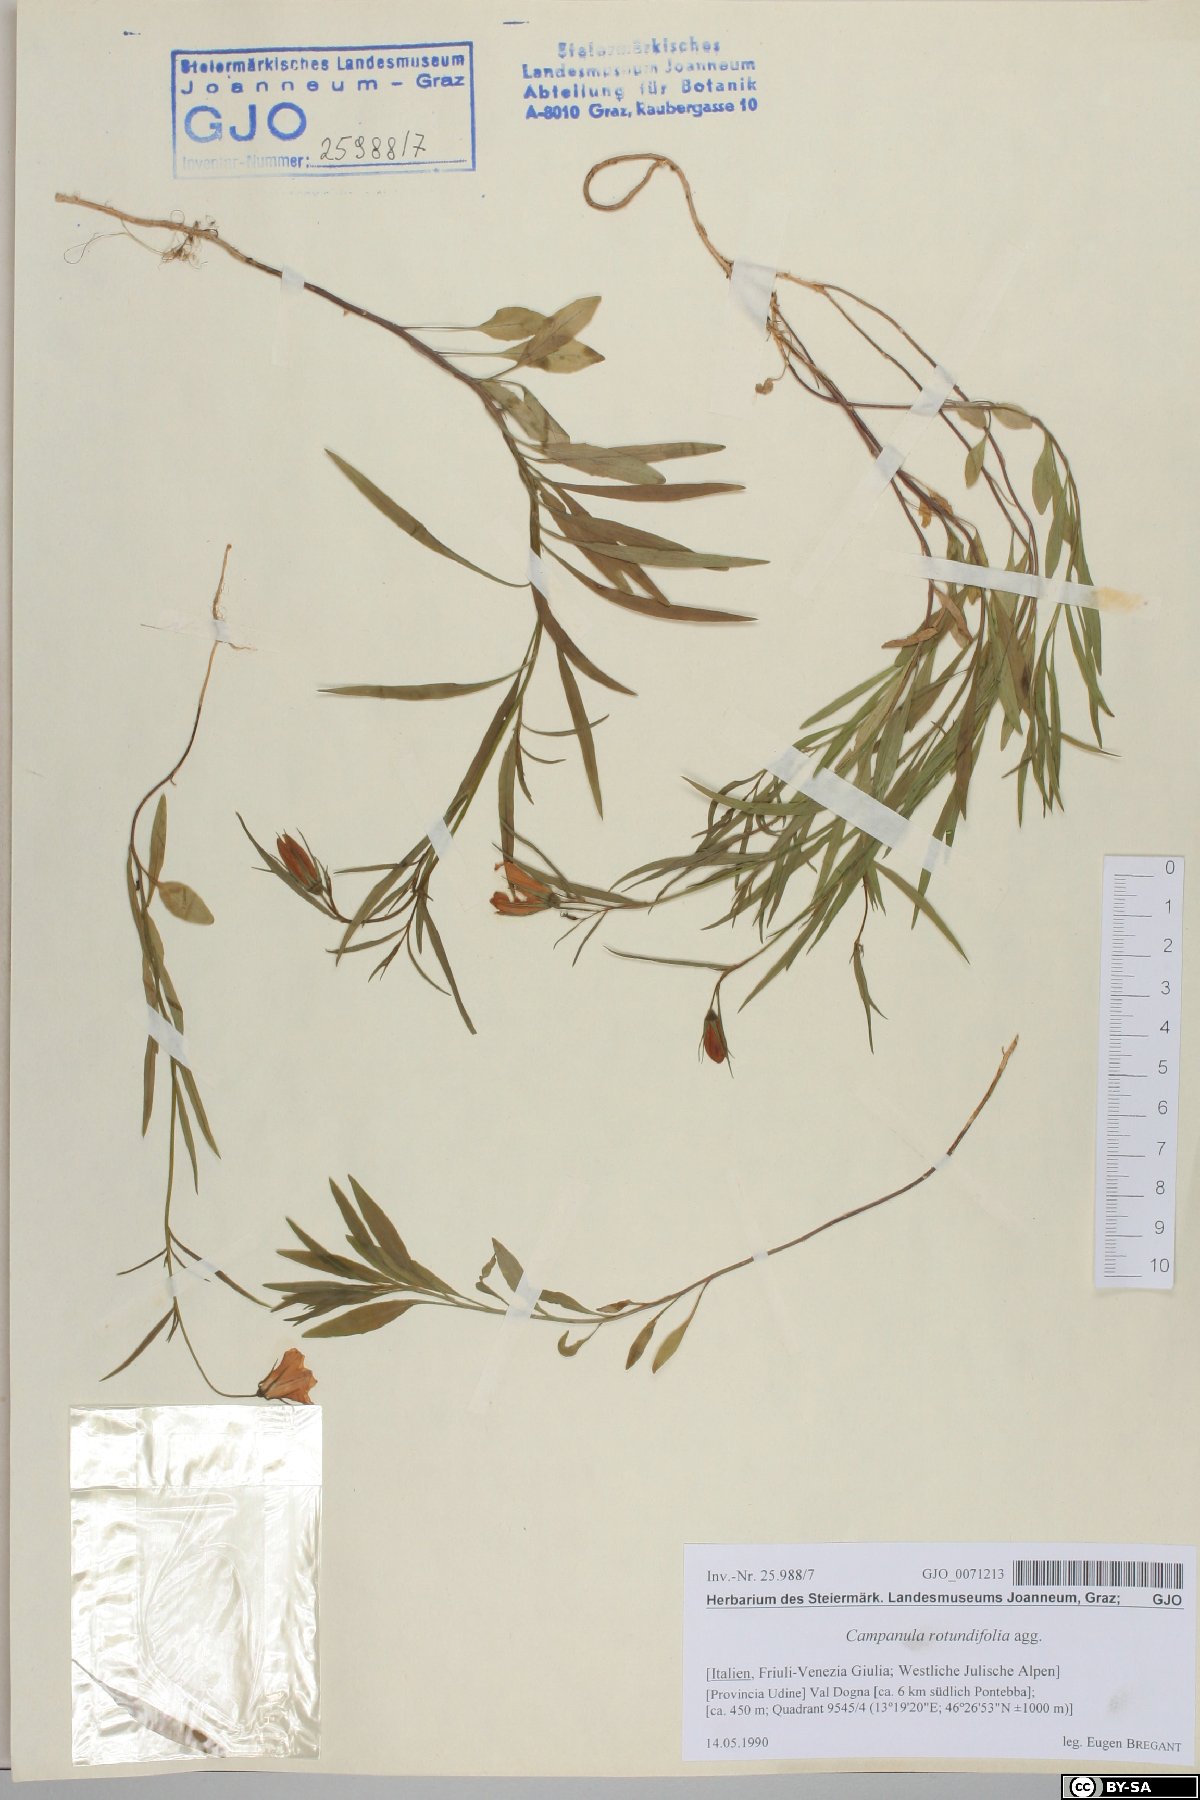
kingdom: Plantae
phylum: Tracheophyta
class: Magnoliopsida
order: Asterales
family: Campanulaceae
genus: Campanula
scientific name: Campanula rotundifolia
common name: Harebell
